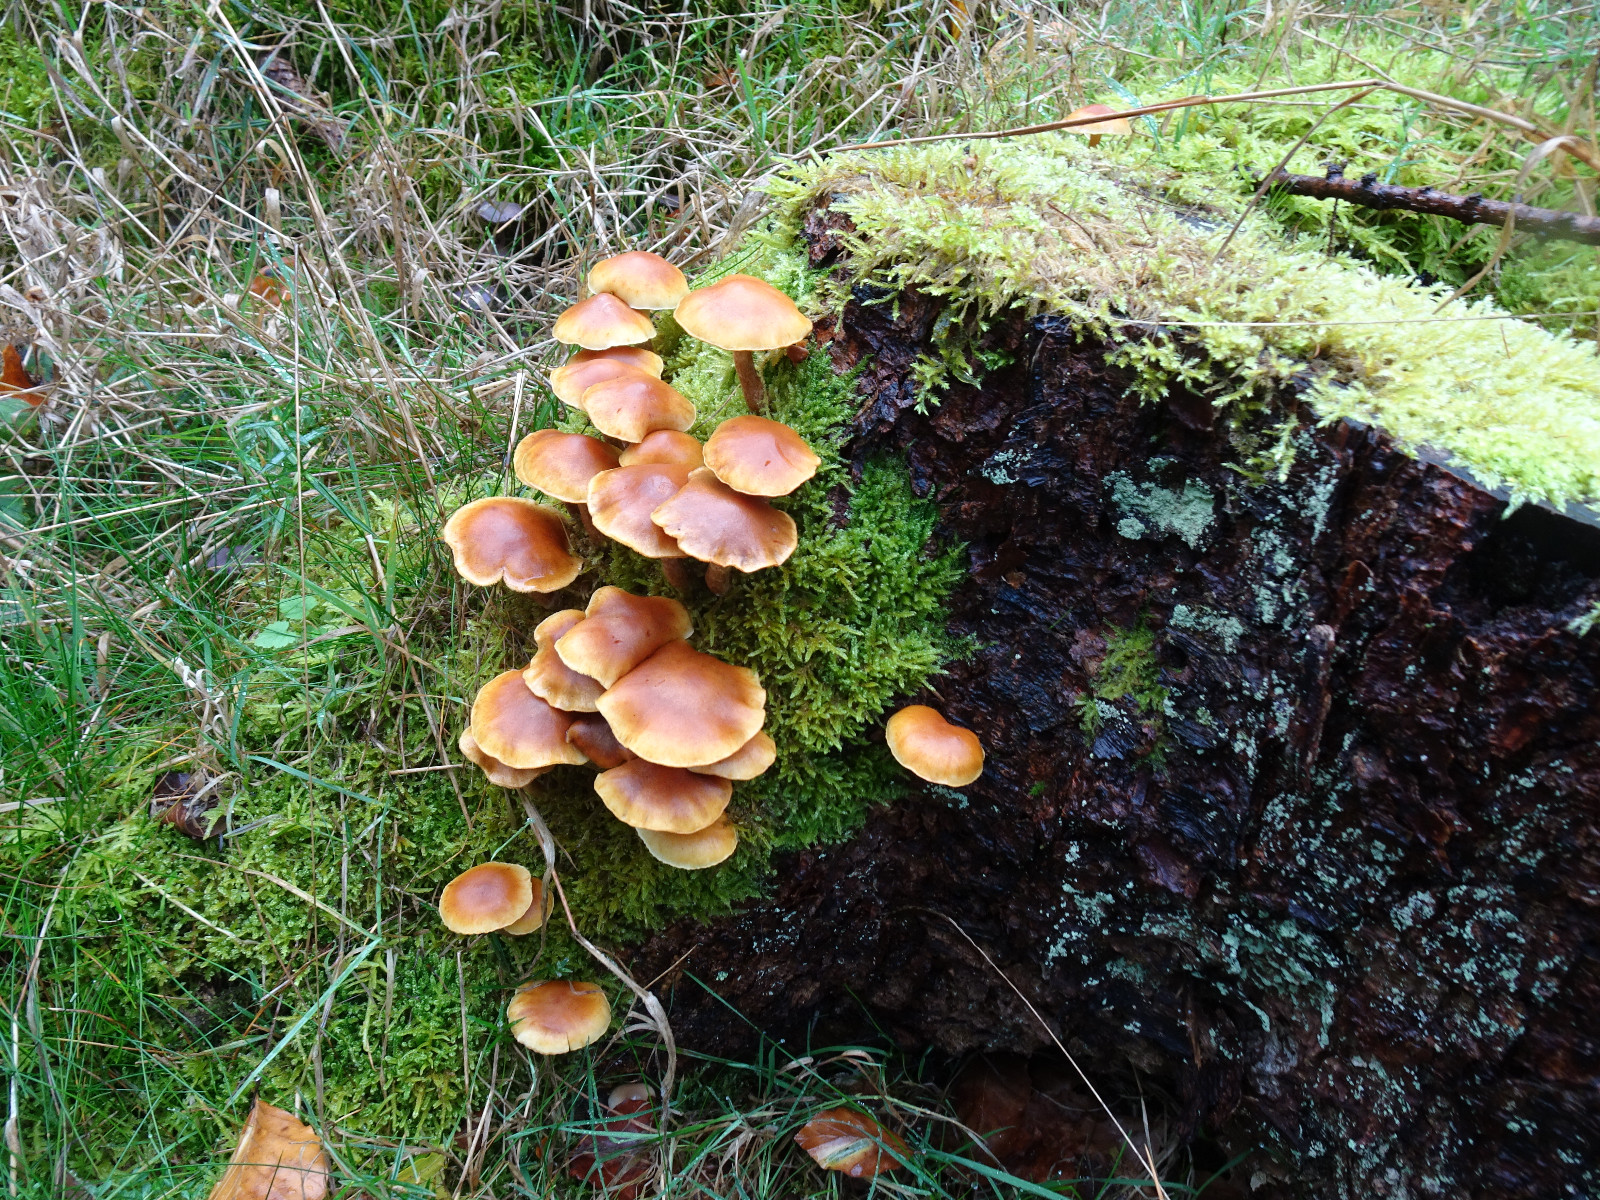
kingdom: Fungi
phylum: Basidiomycota
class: Agaricomycetes
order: Agaricales
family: Hymenogastraceae
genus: Gymnopilus
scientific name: Gymnopilus penetrans
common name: plettet flammehat
